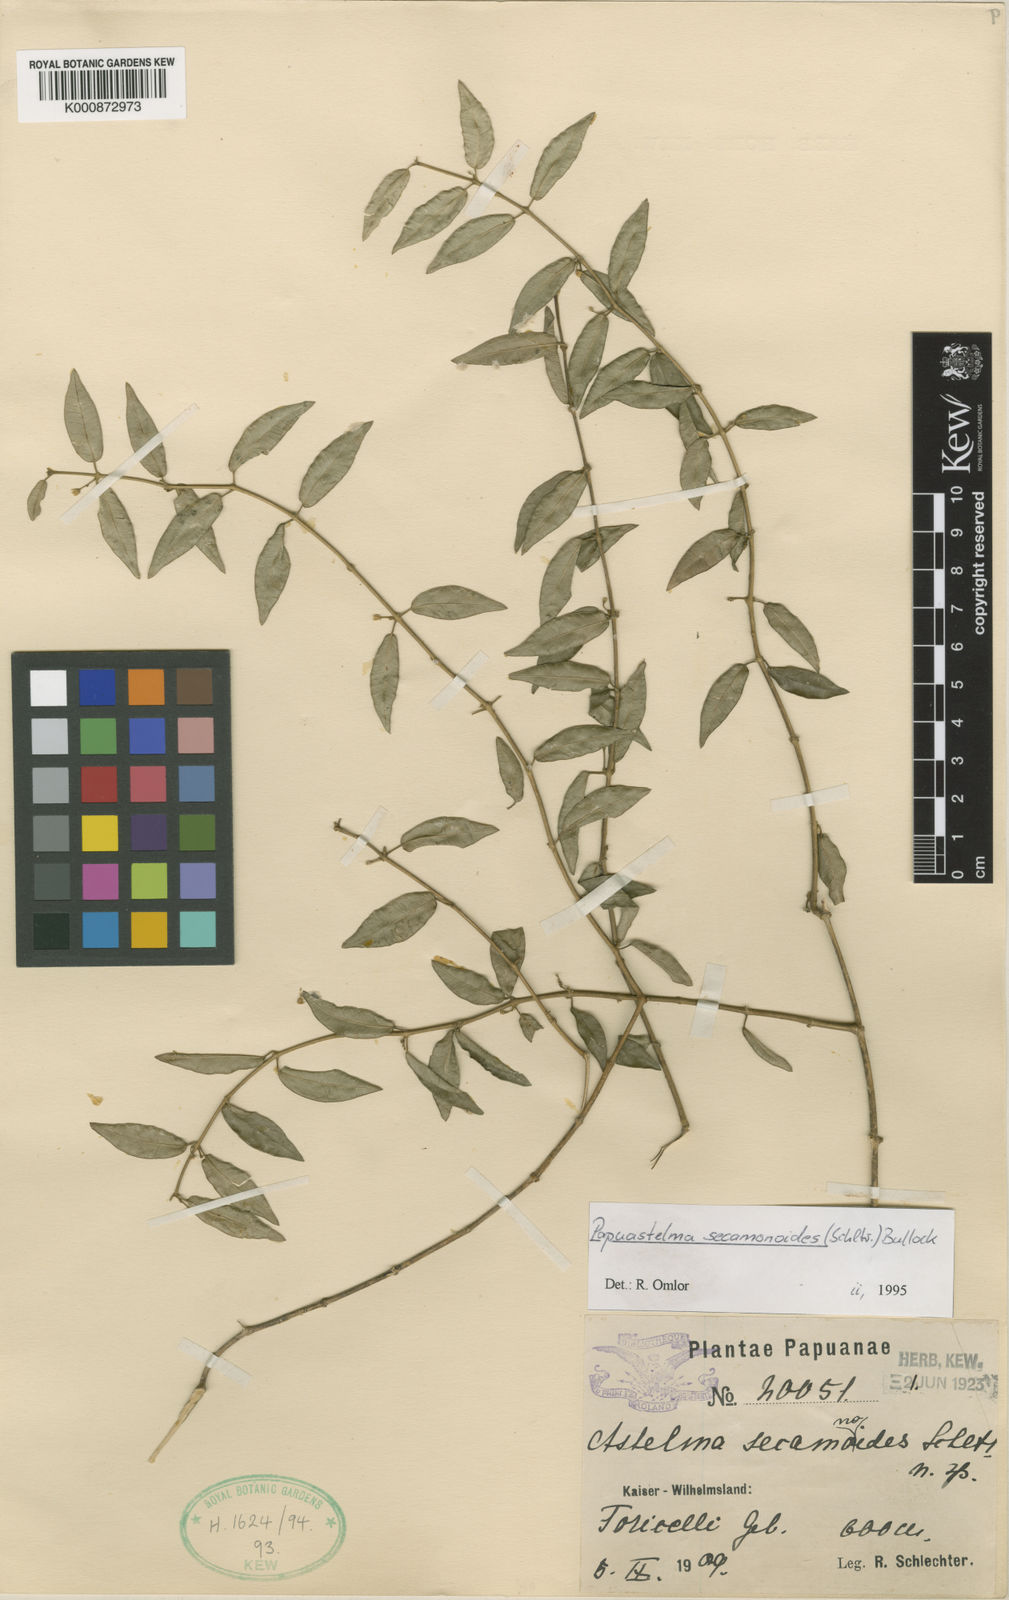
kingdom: Plantae
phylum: Tracheophyta
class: Magnoliopsida
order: Gentianales
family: Apocynaceae
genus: Sarcolobus
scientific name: Sarcolobus secamonoides
